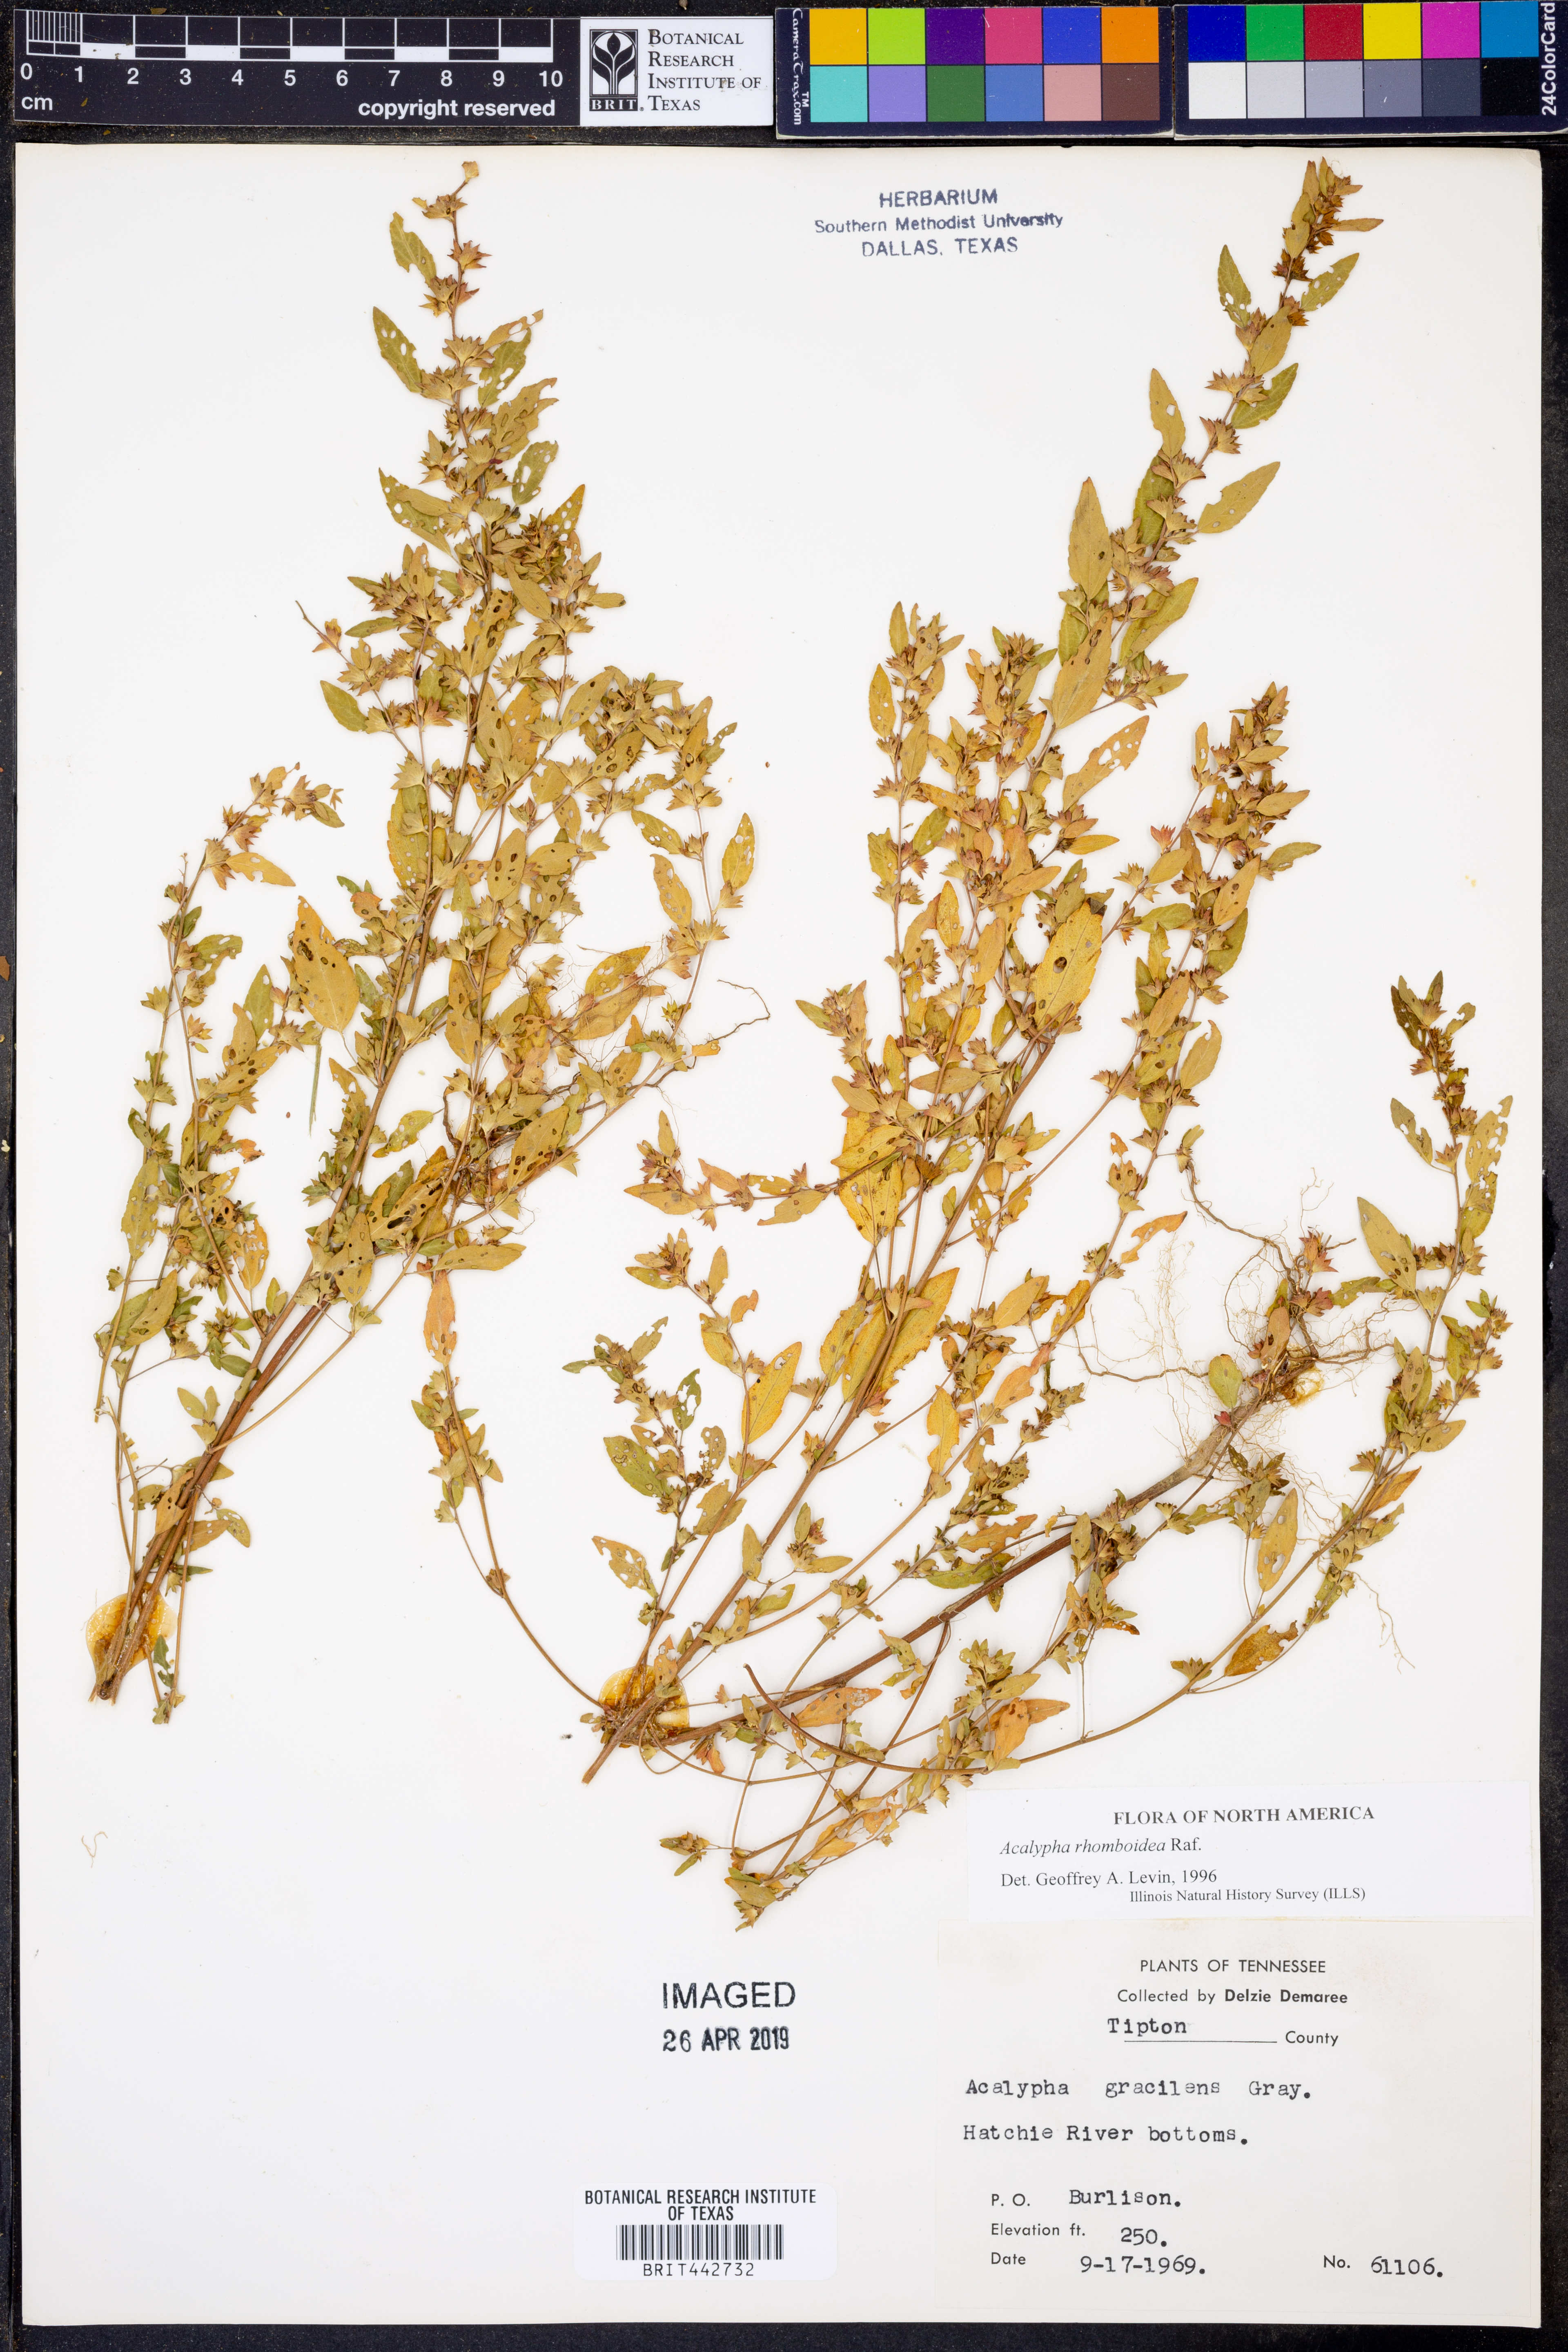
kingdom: Plantae
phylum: Tracheophyta
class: Magnoliopsida
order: Malpighiales
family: Euphorbiaceae
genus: Acalypha
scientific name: Acalypha rhomboidea
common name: Rhombic copperleaf
